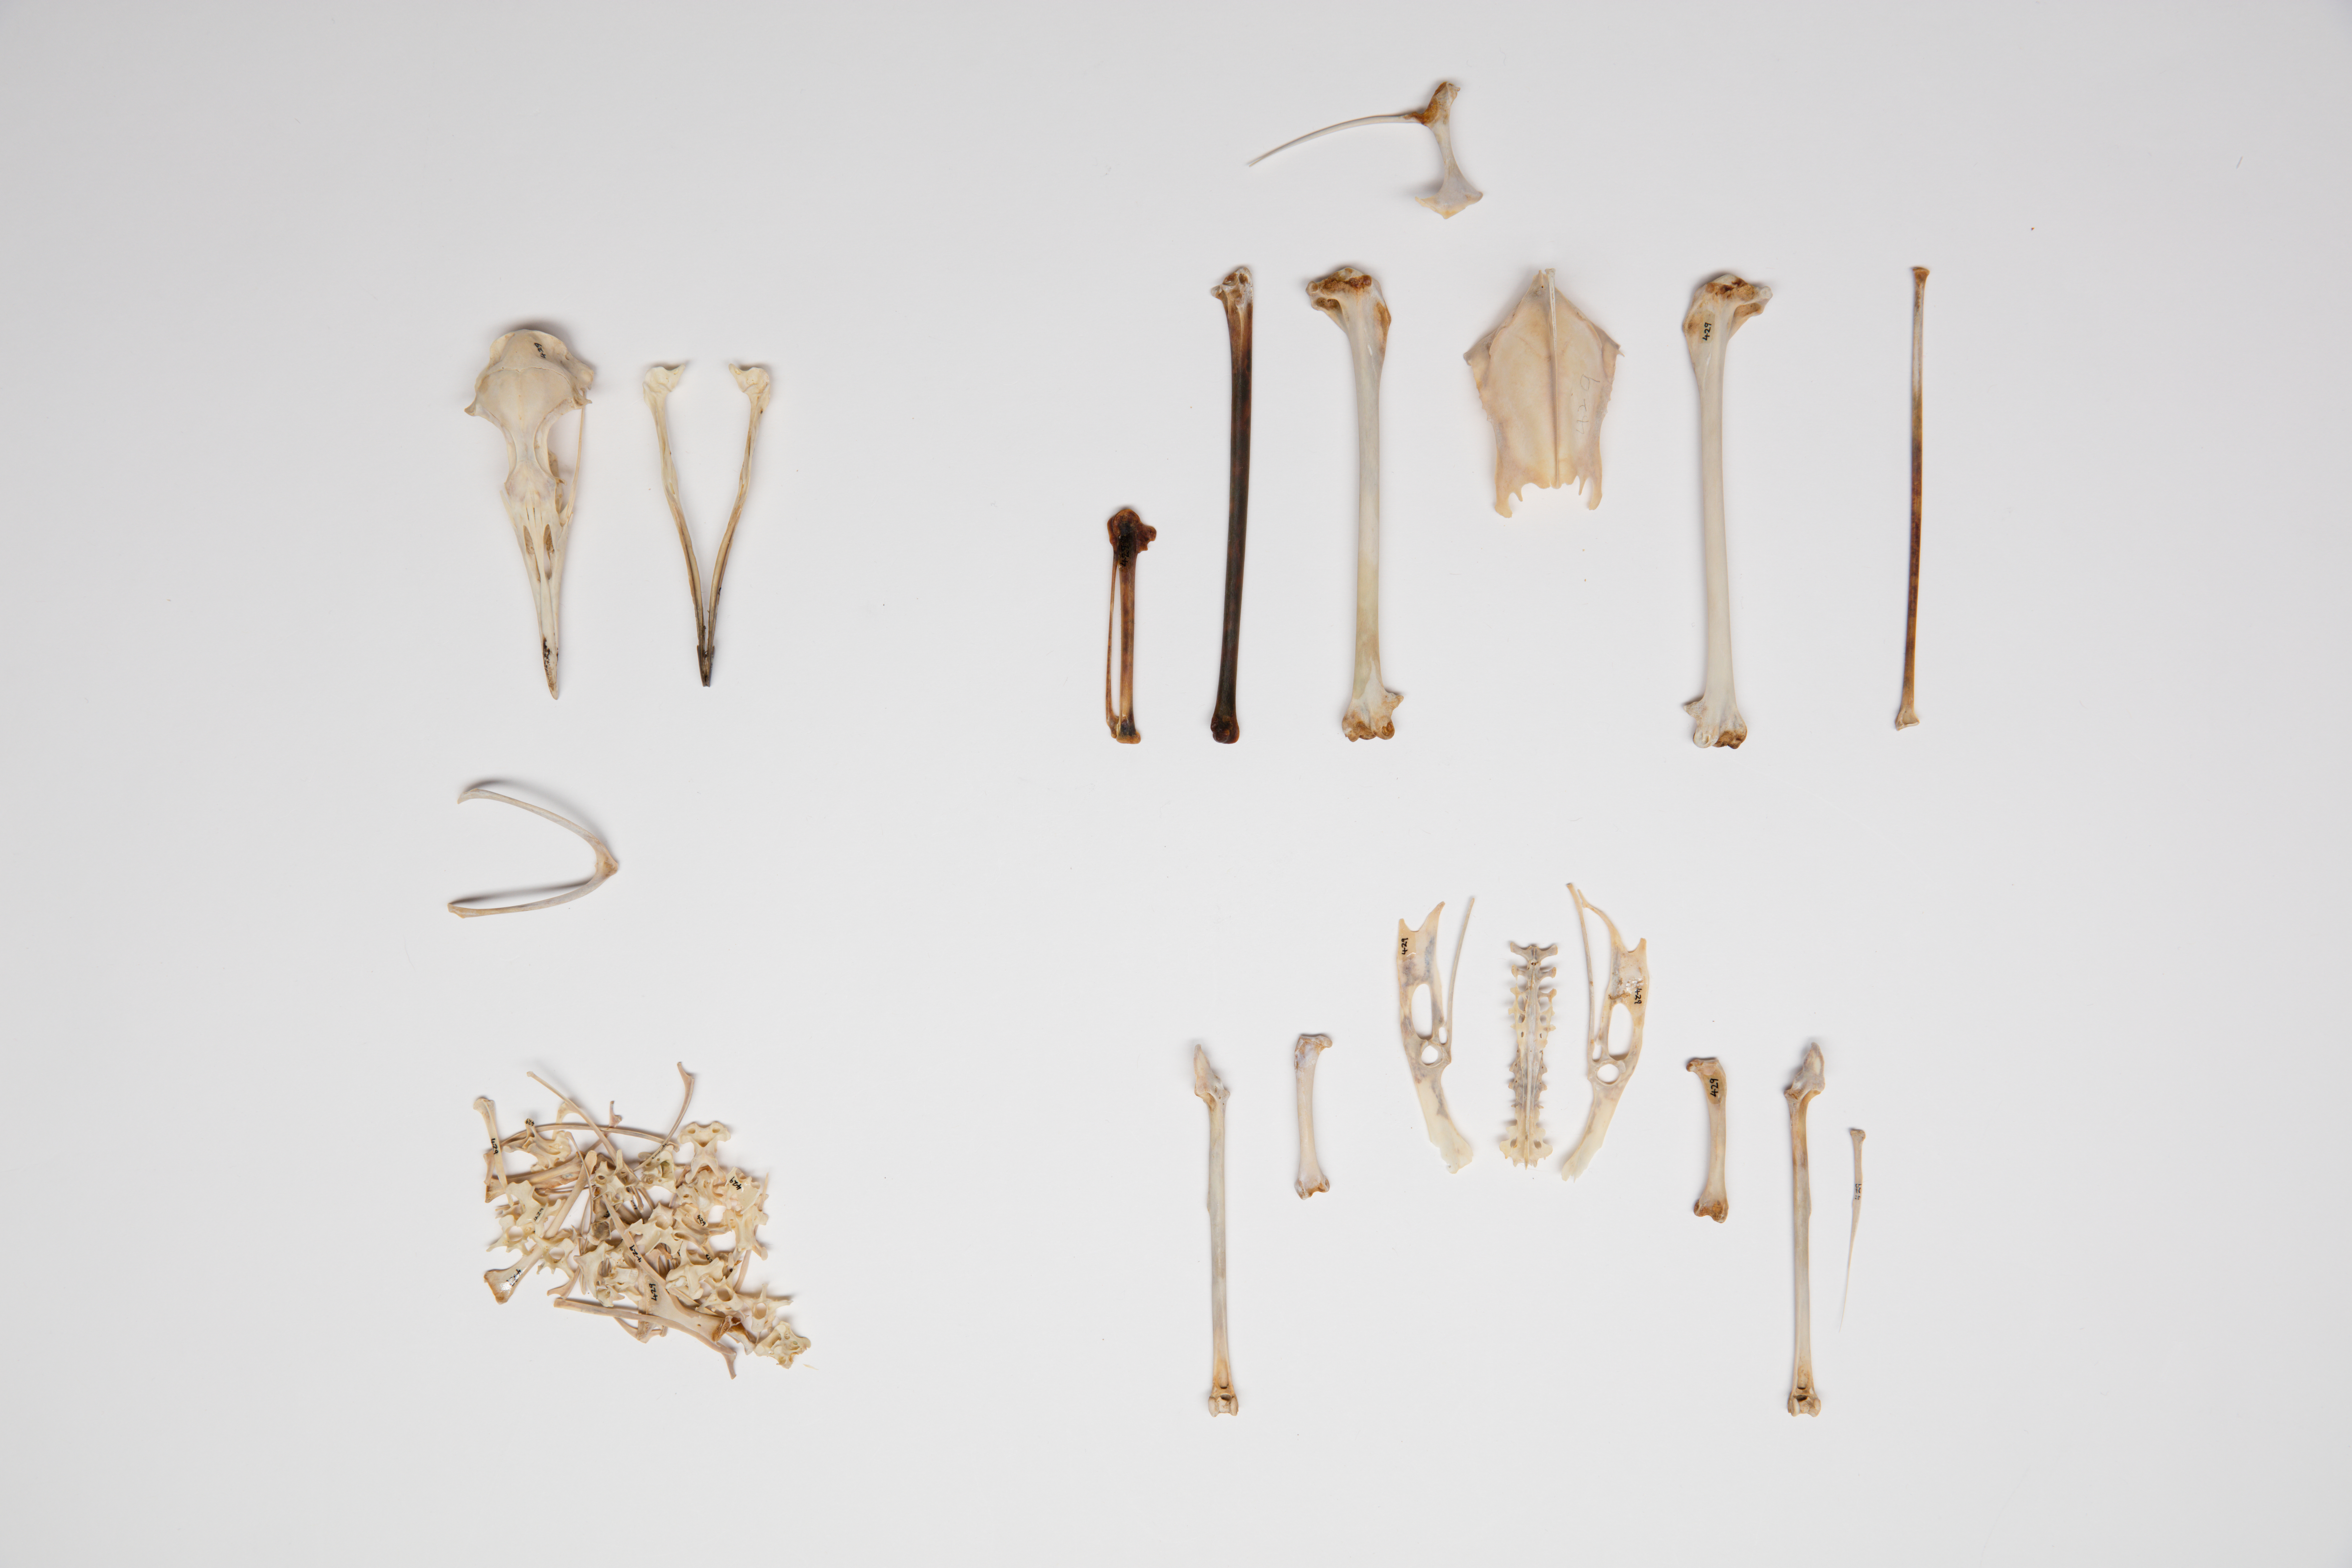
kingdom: Animalia
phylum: Chordata
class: Aves
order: Procellariiformes
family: Procellariidae
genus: Puffinus
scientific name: Puffinus pacificus
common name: Wedge-tailed shearwater
